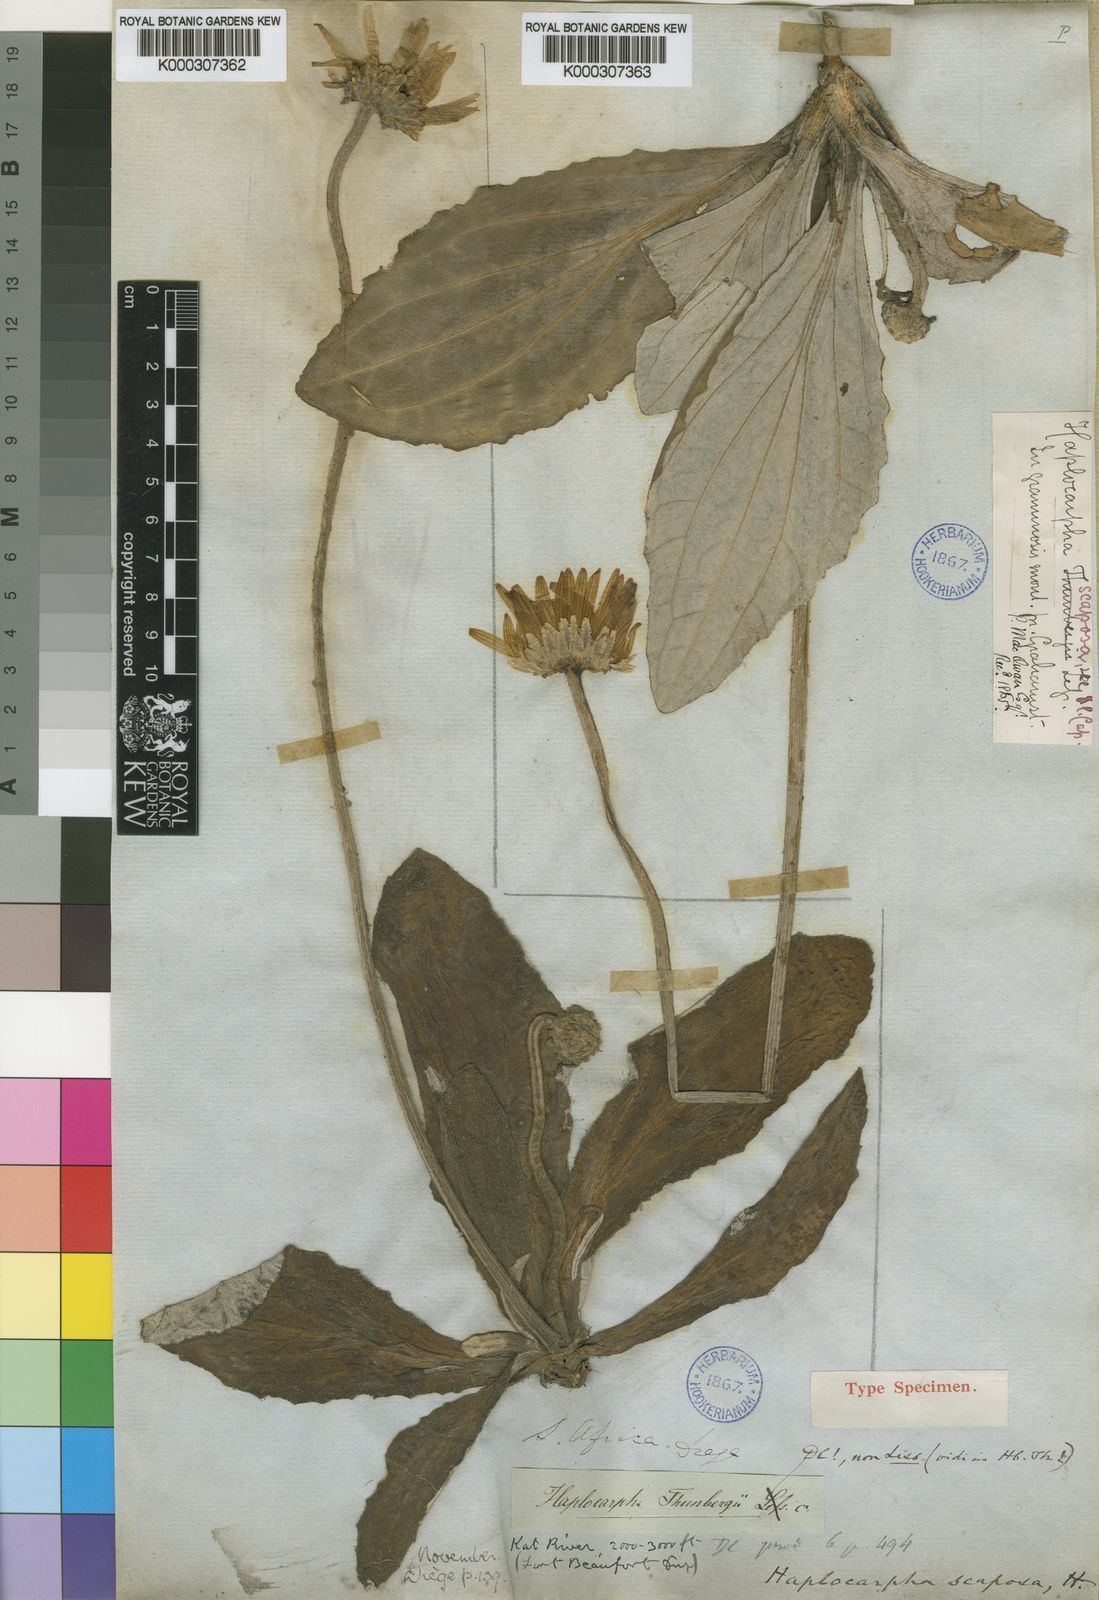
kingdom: Plantae
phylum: Tracheophyta
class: Magnoliopsida
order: Asterales
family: Asteraceae
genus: Haplocarpha
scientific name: Haplocarpha scaposa
